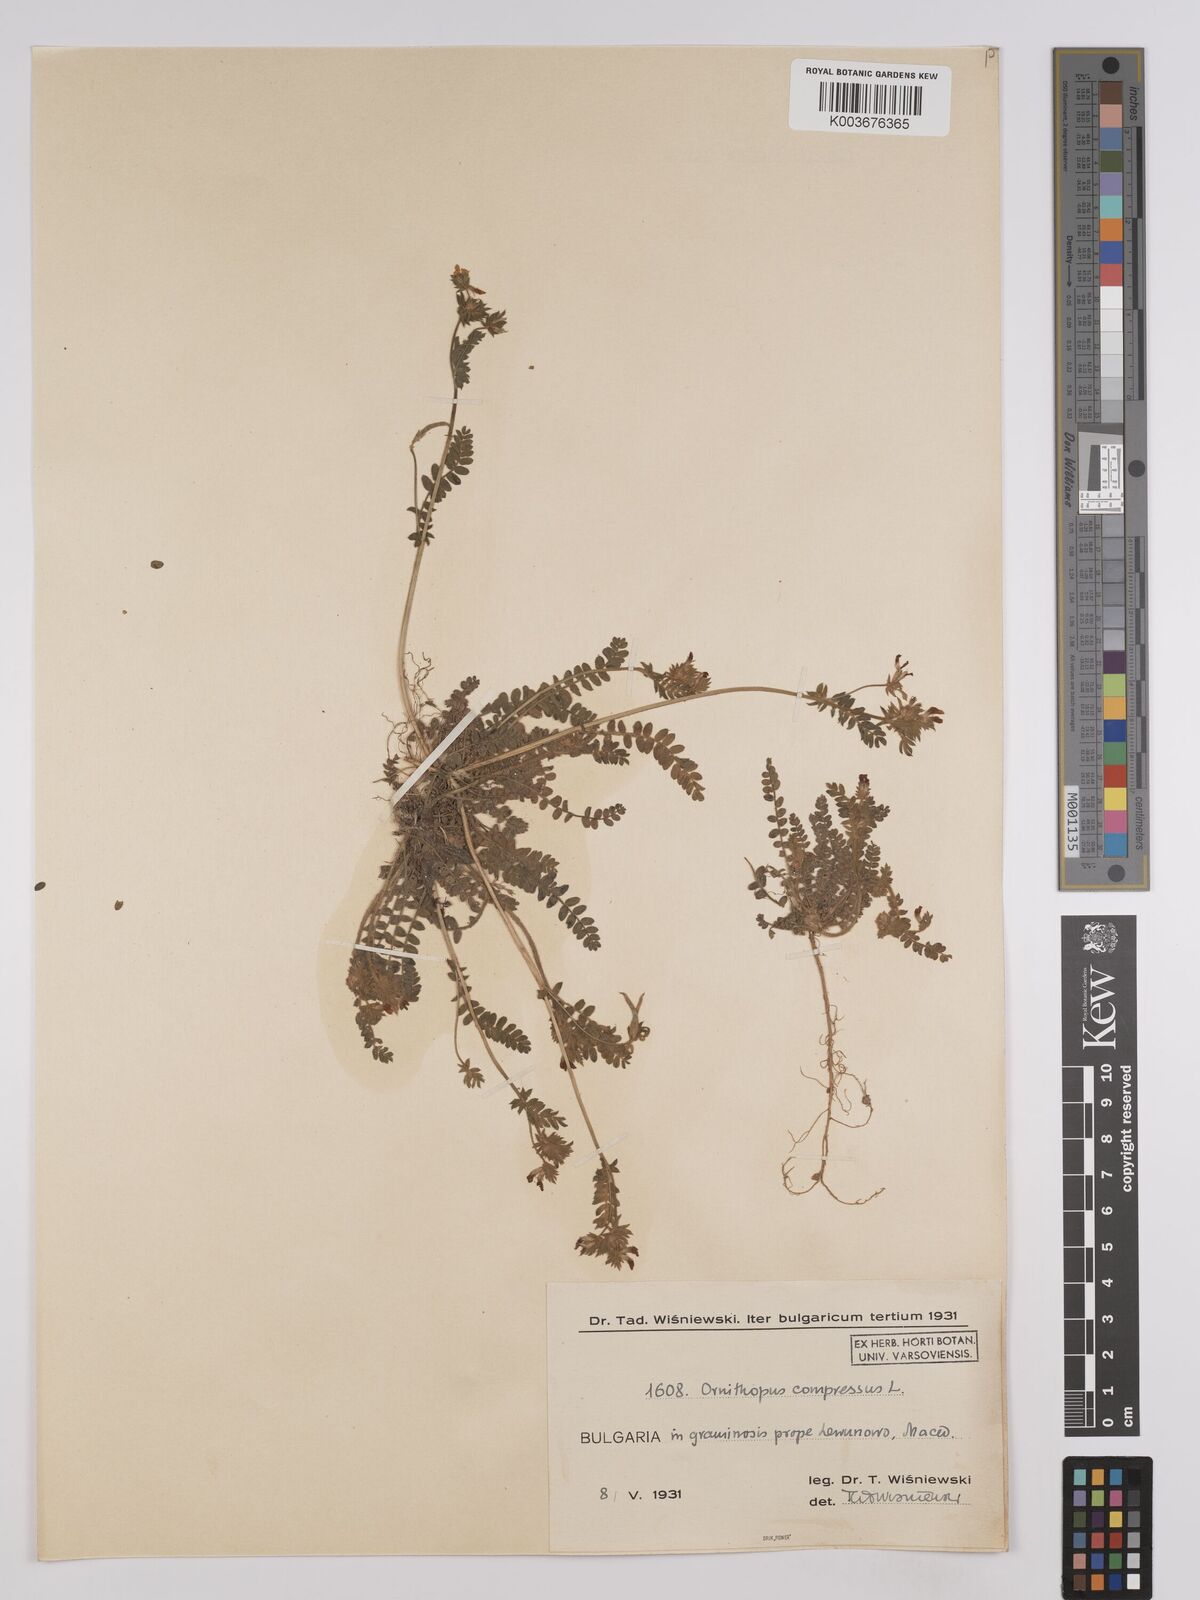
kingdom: Plantae
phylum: Tracheophyta
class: Magnoliopsida
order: Fabales
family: Fabaceae
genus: Ornithopus
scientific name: Ornithopus compressus
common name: Yellow serradella
